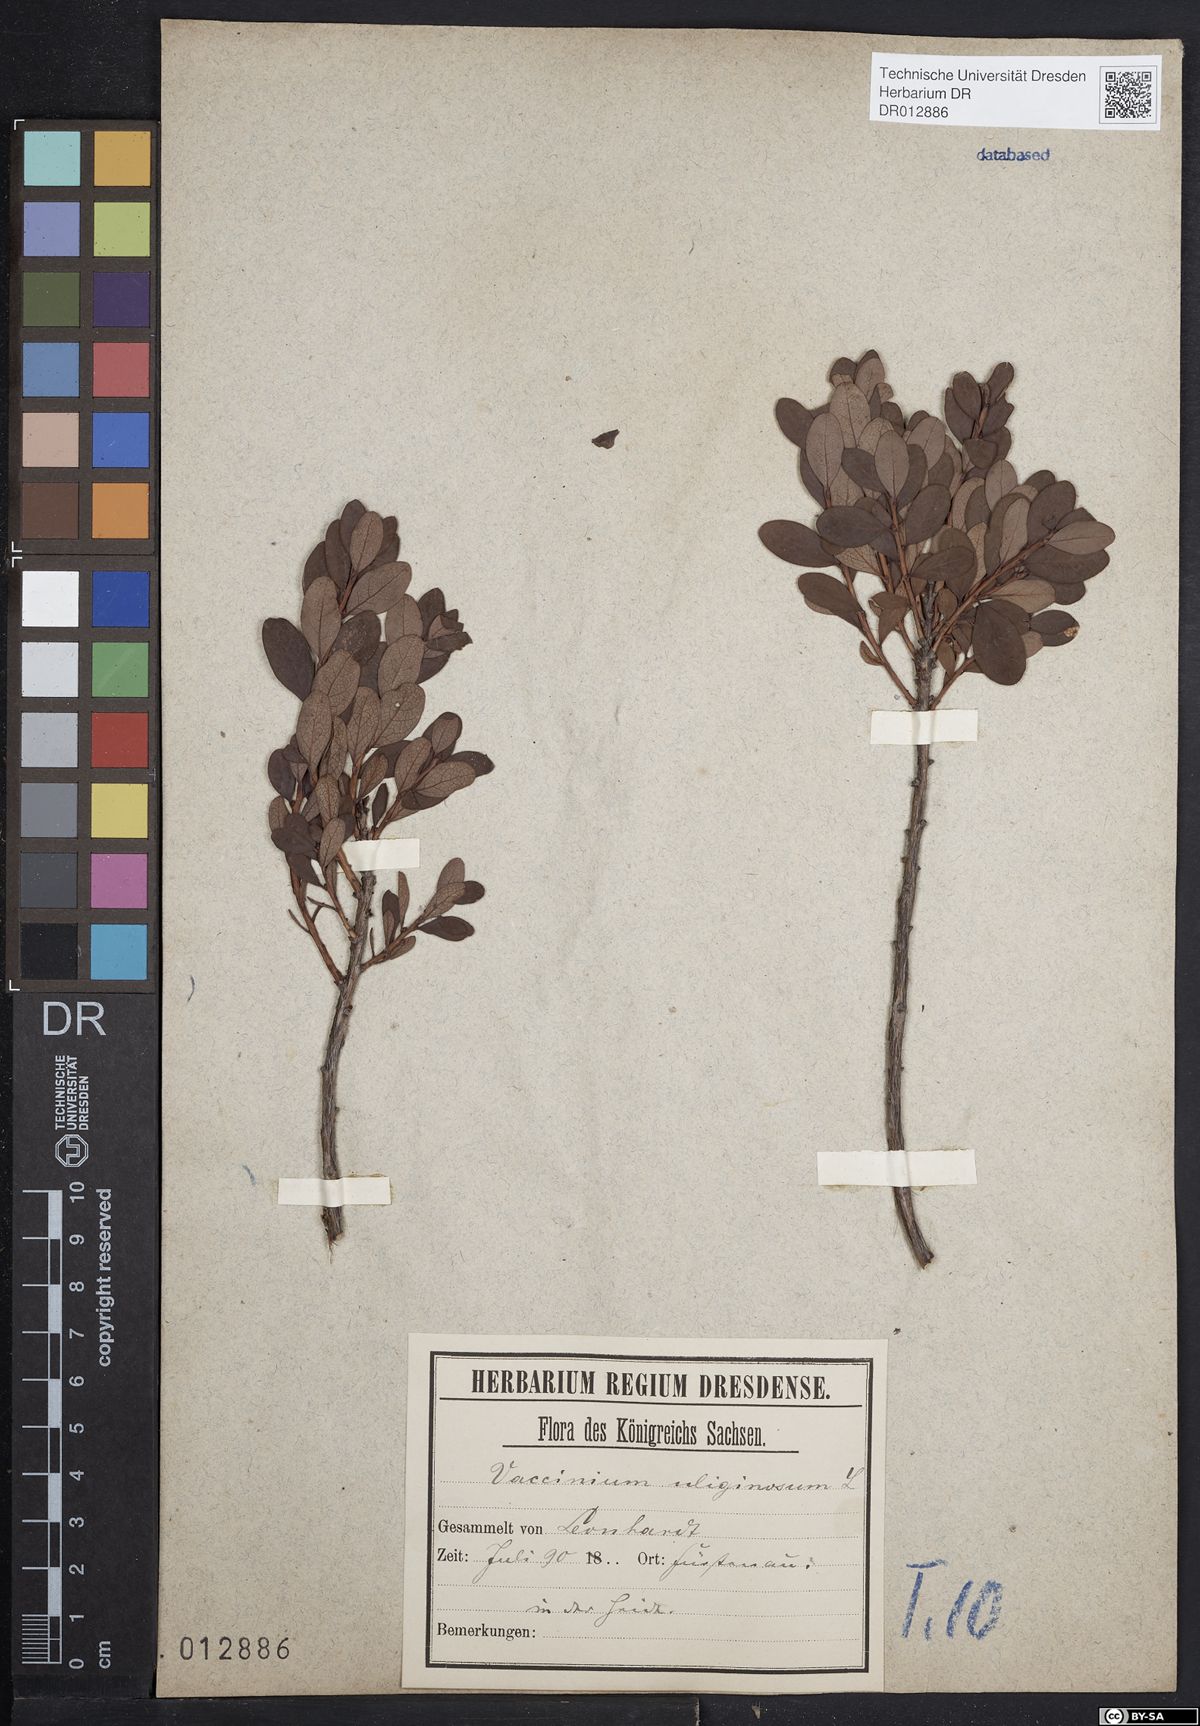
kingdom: Plantae
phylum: Tracheophyta
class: Magnoliopsida
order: Ericales
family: Ericaceae
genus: Vaccinium
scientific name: Vaccinium uliginosum
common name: Bog bilberry
